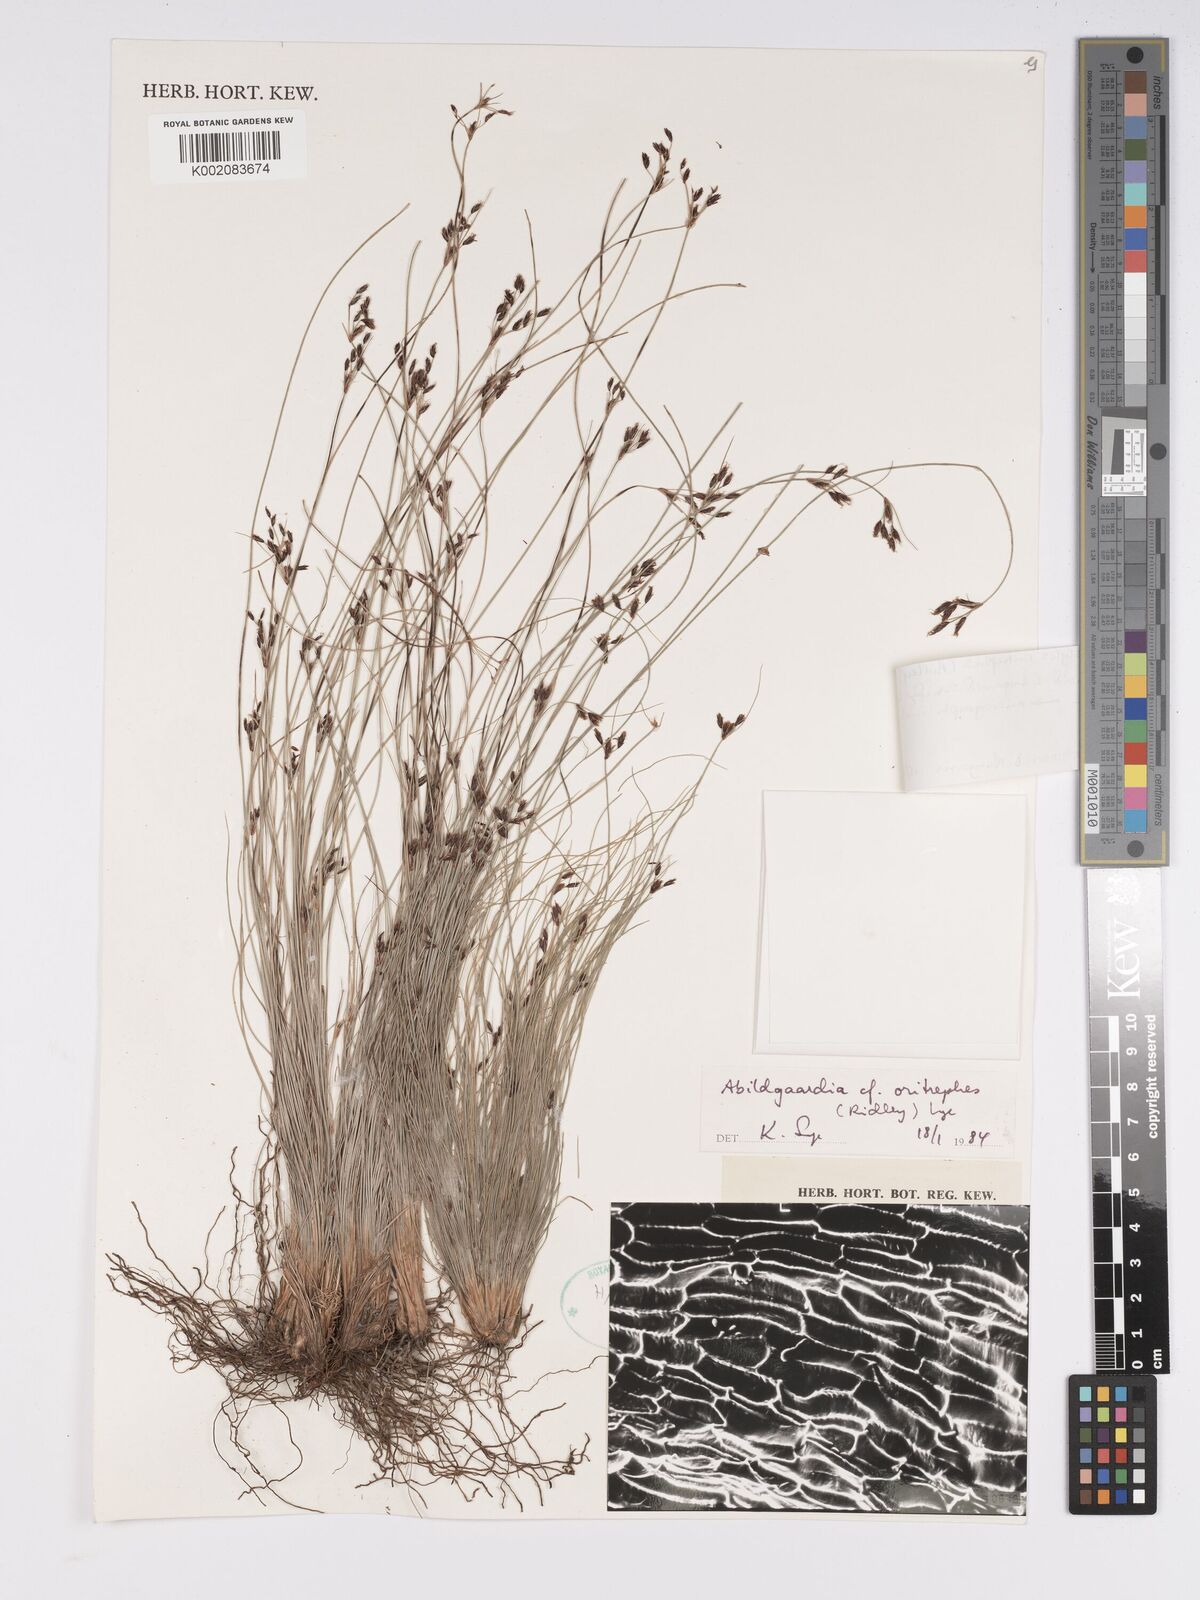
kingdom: Plantae
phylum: Tracheophyta
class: Liliopsida
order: Poales
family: Cyperaceae
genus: Bulbostylis
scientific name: Bulbostylis oritrephes
